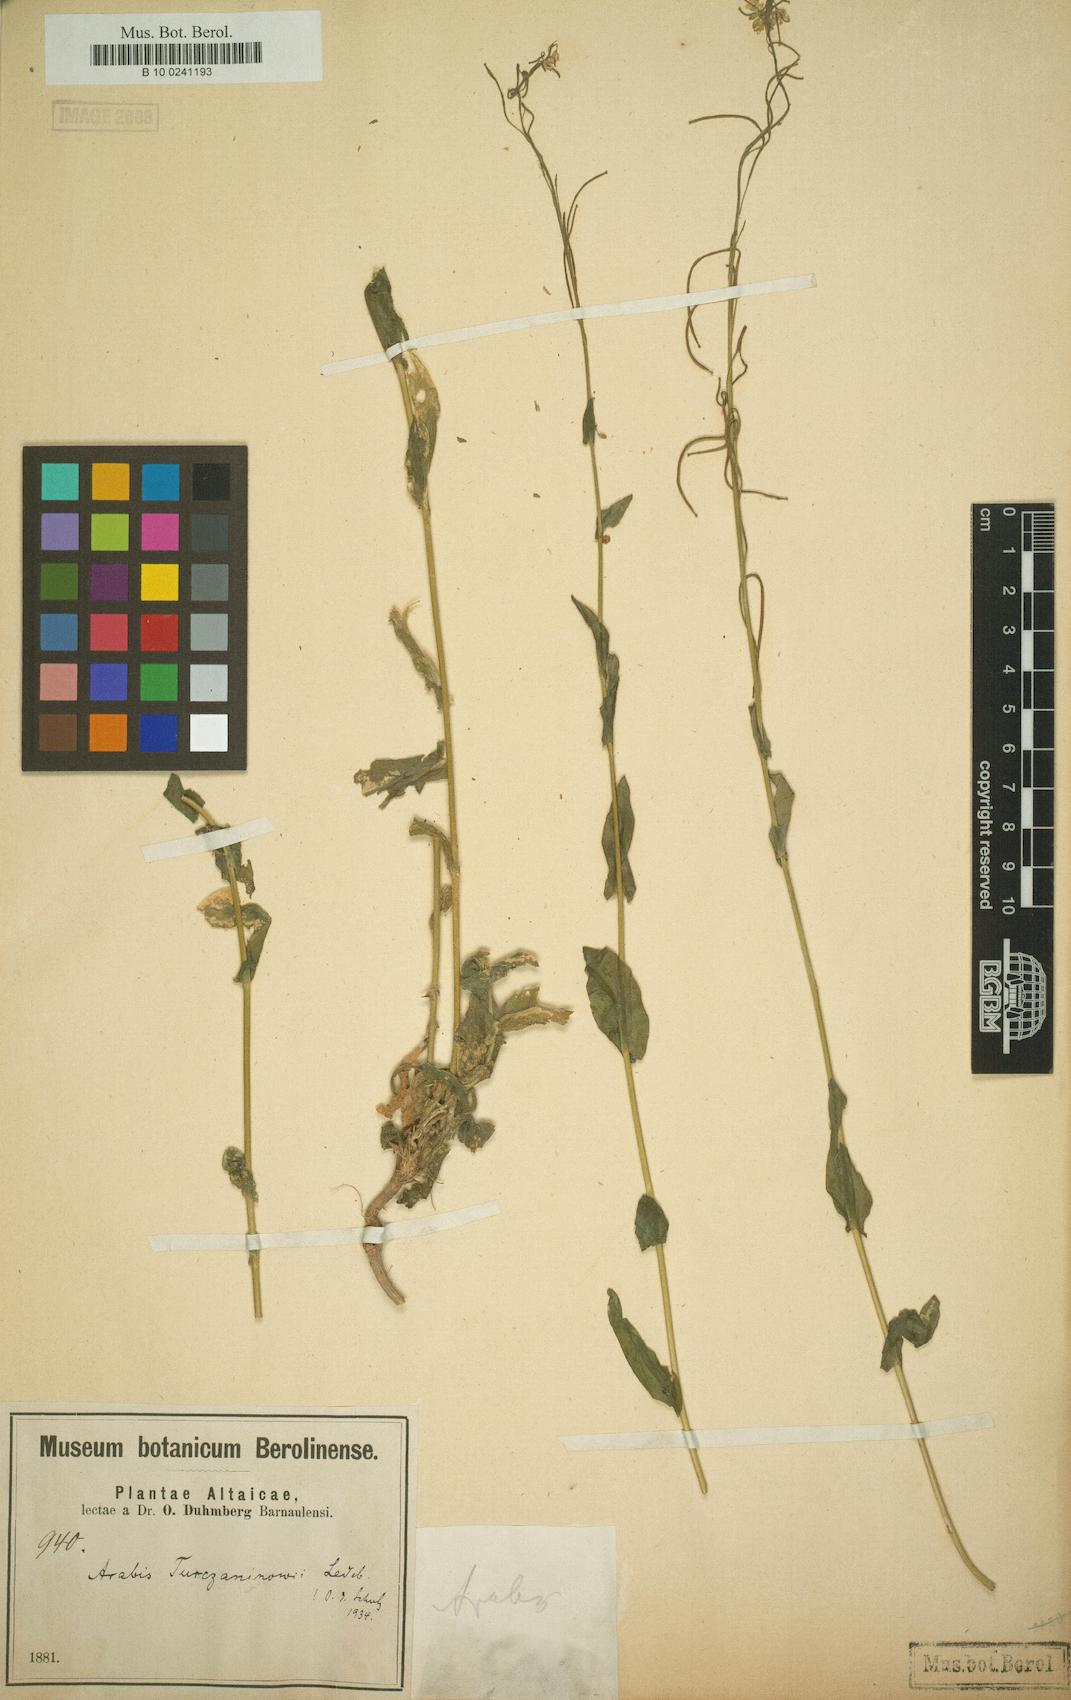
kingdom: Plantae
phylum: Tracheophyta
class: Magnoliopsida
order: Brassicales
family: Brassicaceae
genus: Boechera
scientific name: Boechera falcata
